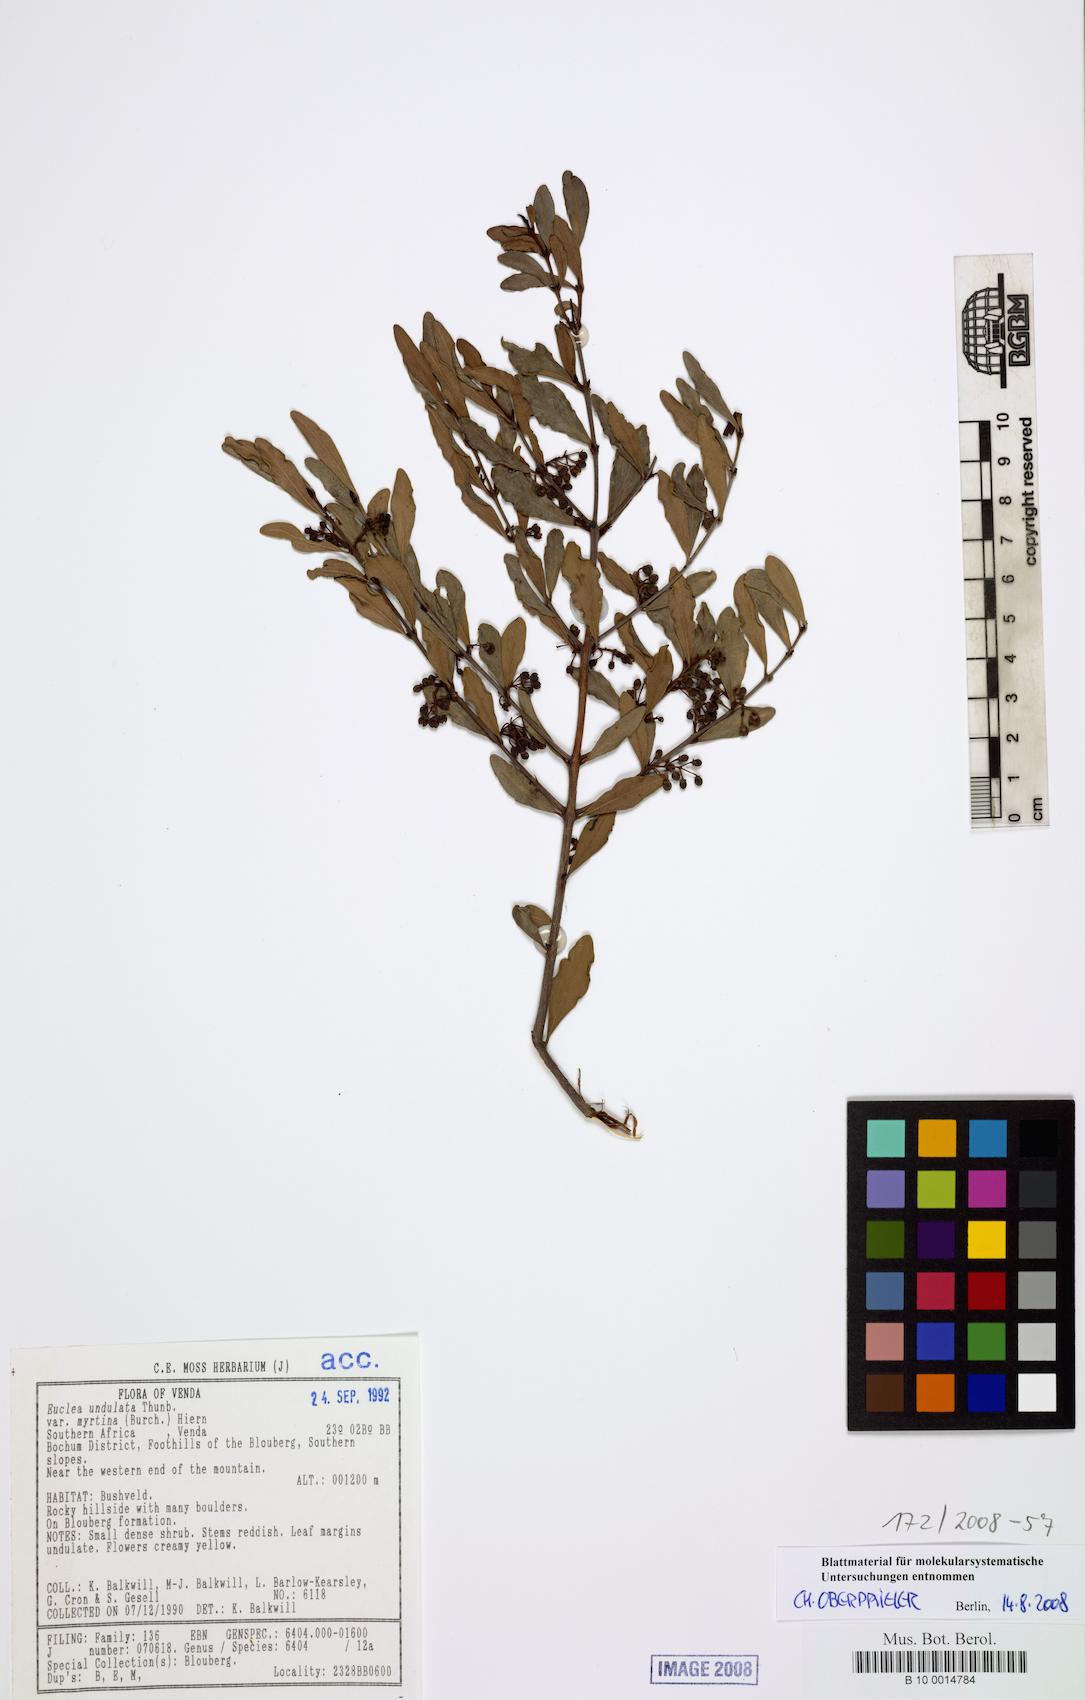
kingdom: Plantae
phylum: Tracheophyta
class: Magnoliopsida
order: Ericales
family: Ebenaceae
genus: Euclea
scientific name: Euclea undulata
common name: Small-leaved guarri
